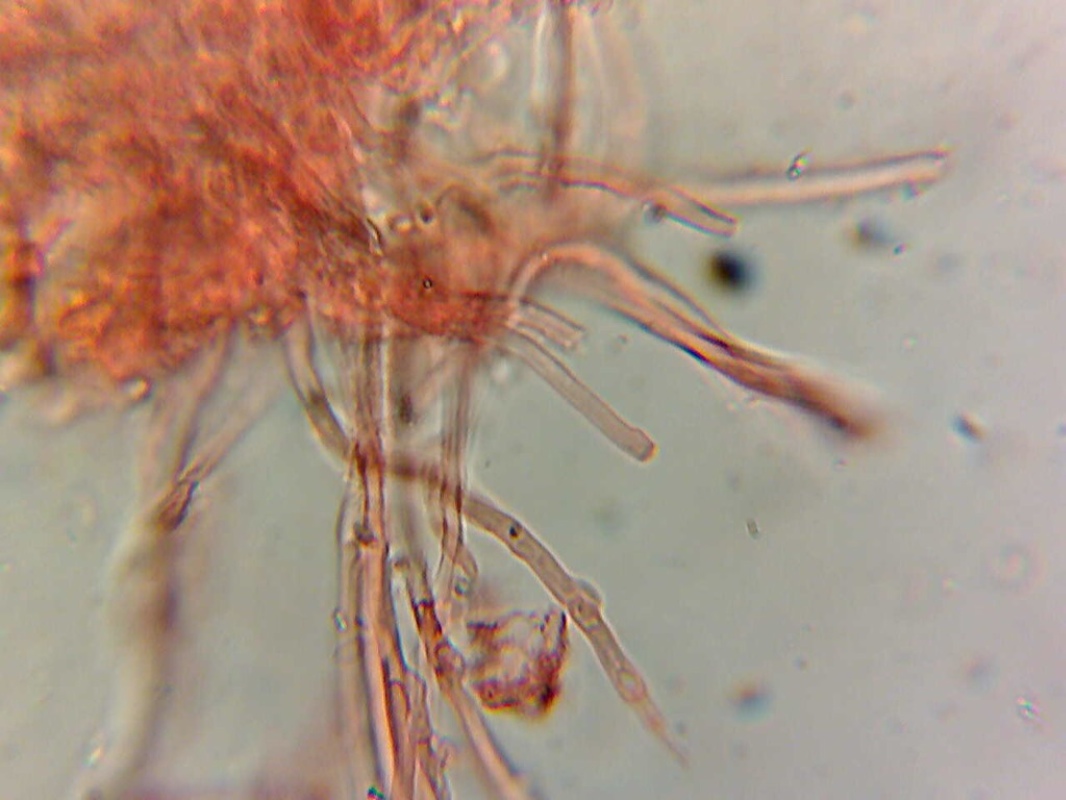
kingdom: Fungi
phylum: Basidiomycota
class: Agaricomycetes
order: Polyporales
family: Meruliaceae
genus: Mycoacia
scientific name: Mycoacia gilvescens
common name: rosa pastelporesvamp
